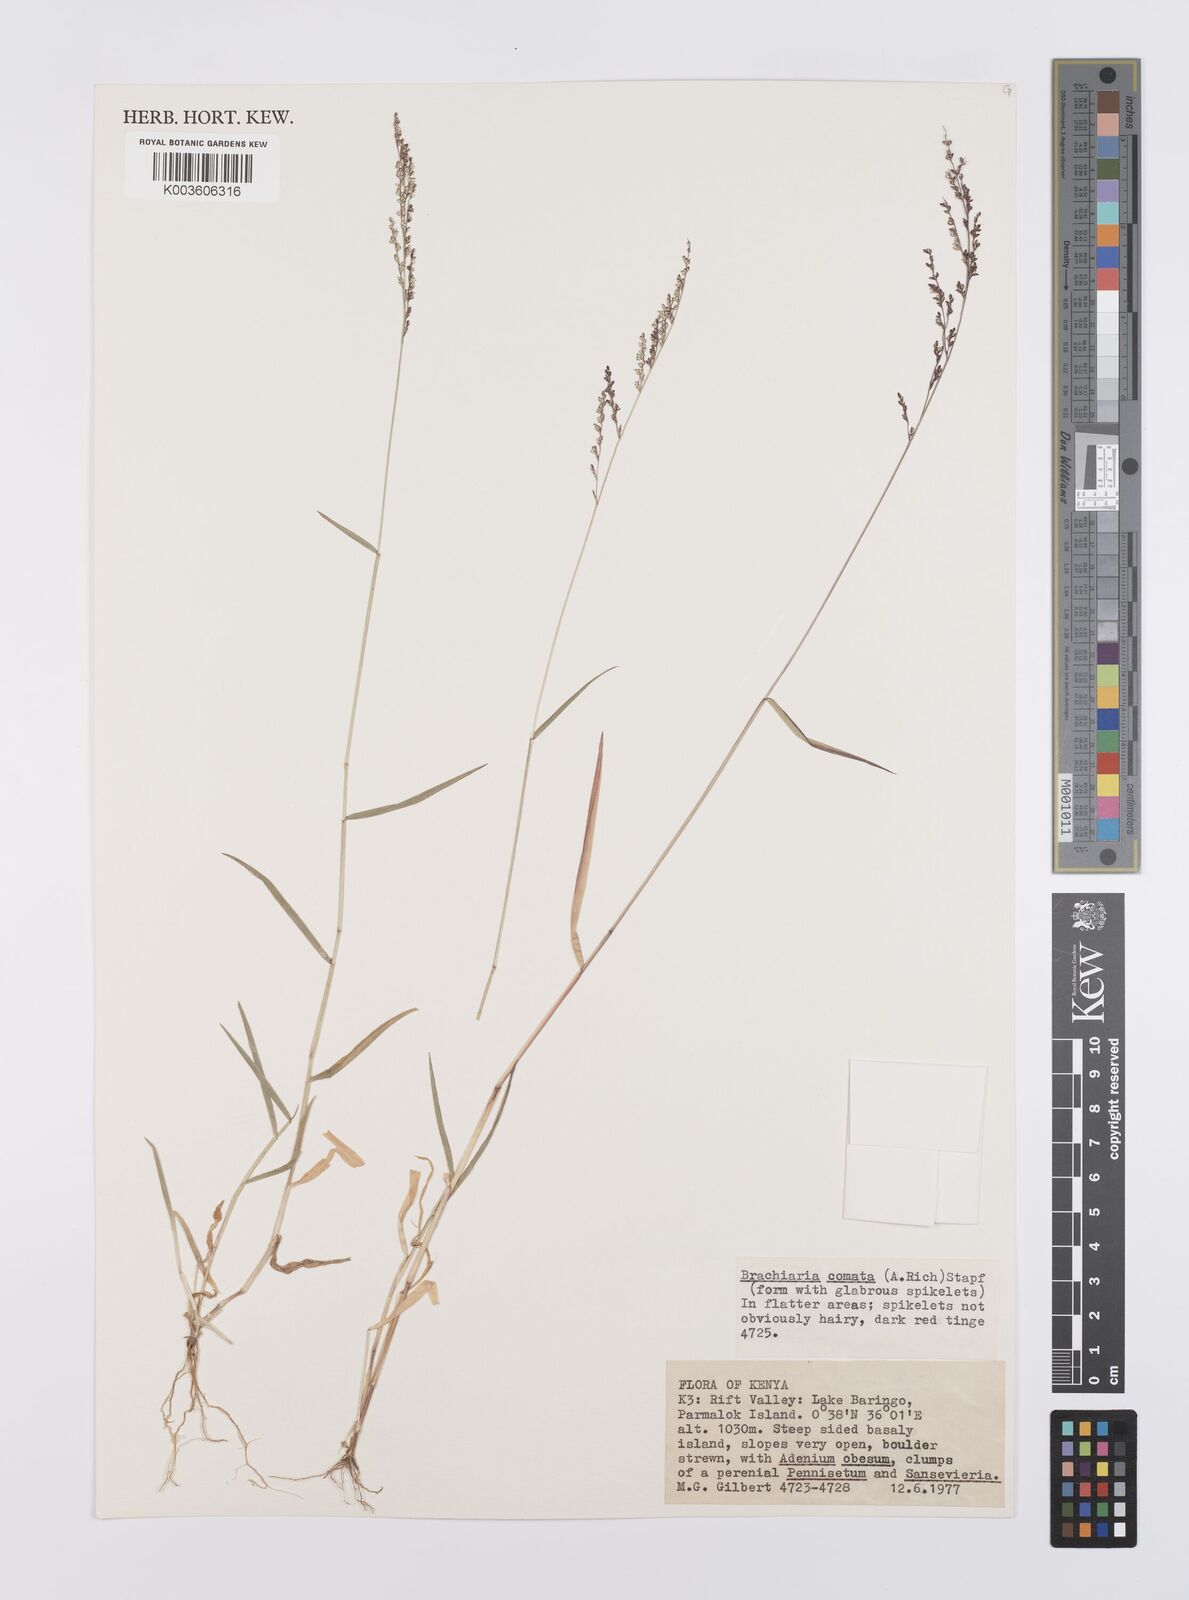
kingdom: Plantae
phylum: Tracheophyta
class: Liliopsida
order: Poales
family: Poaceae
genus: Urochloa
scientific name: Urochloa comata
